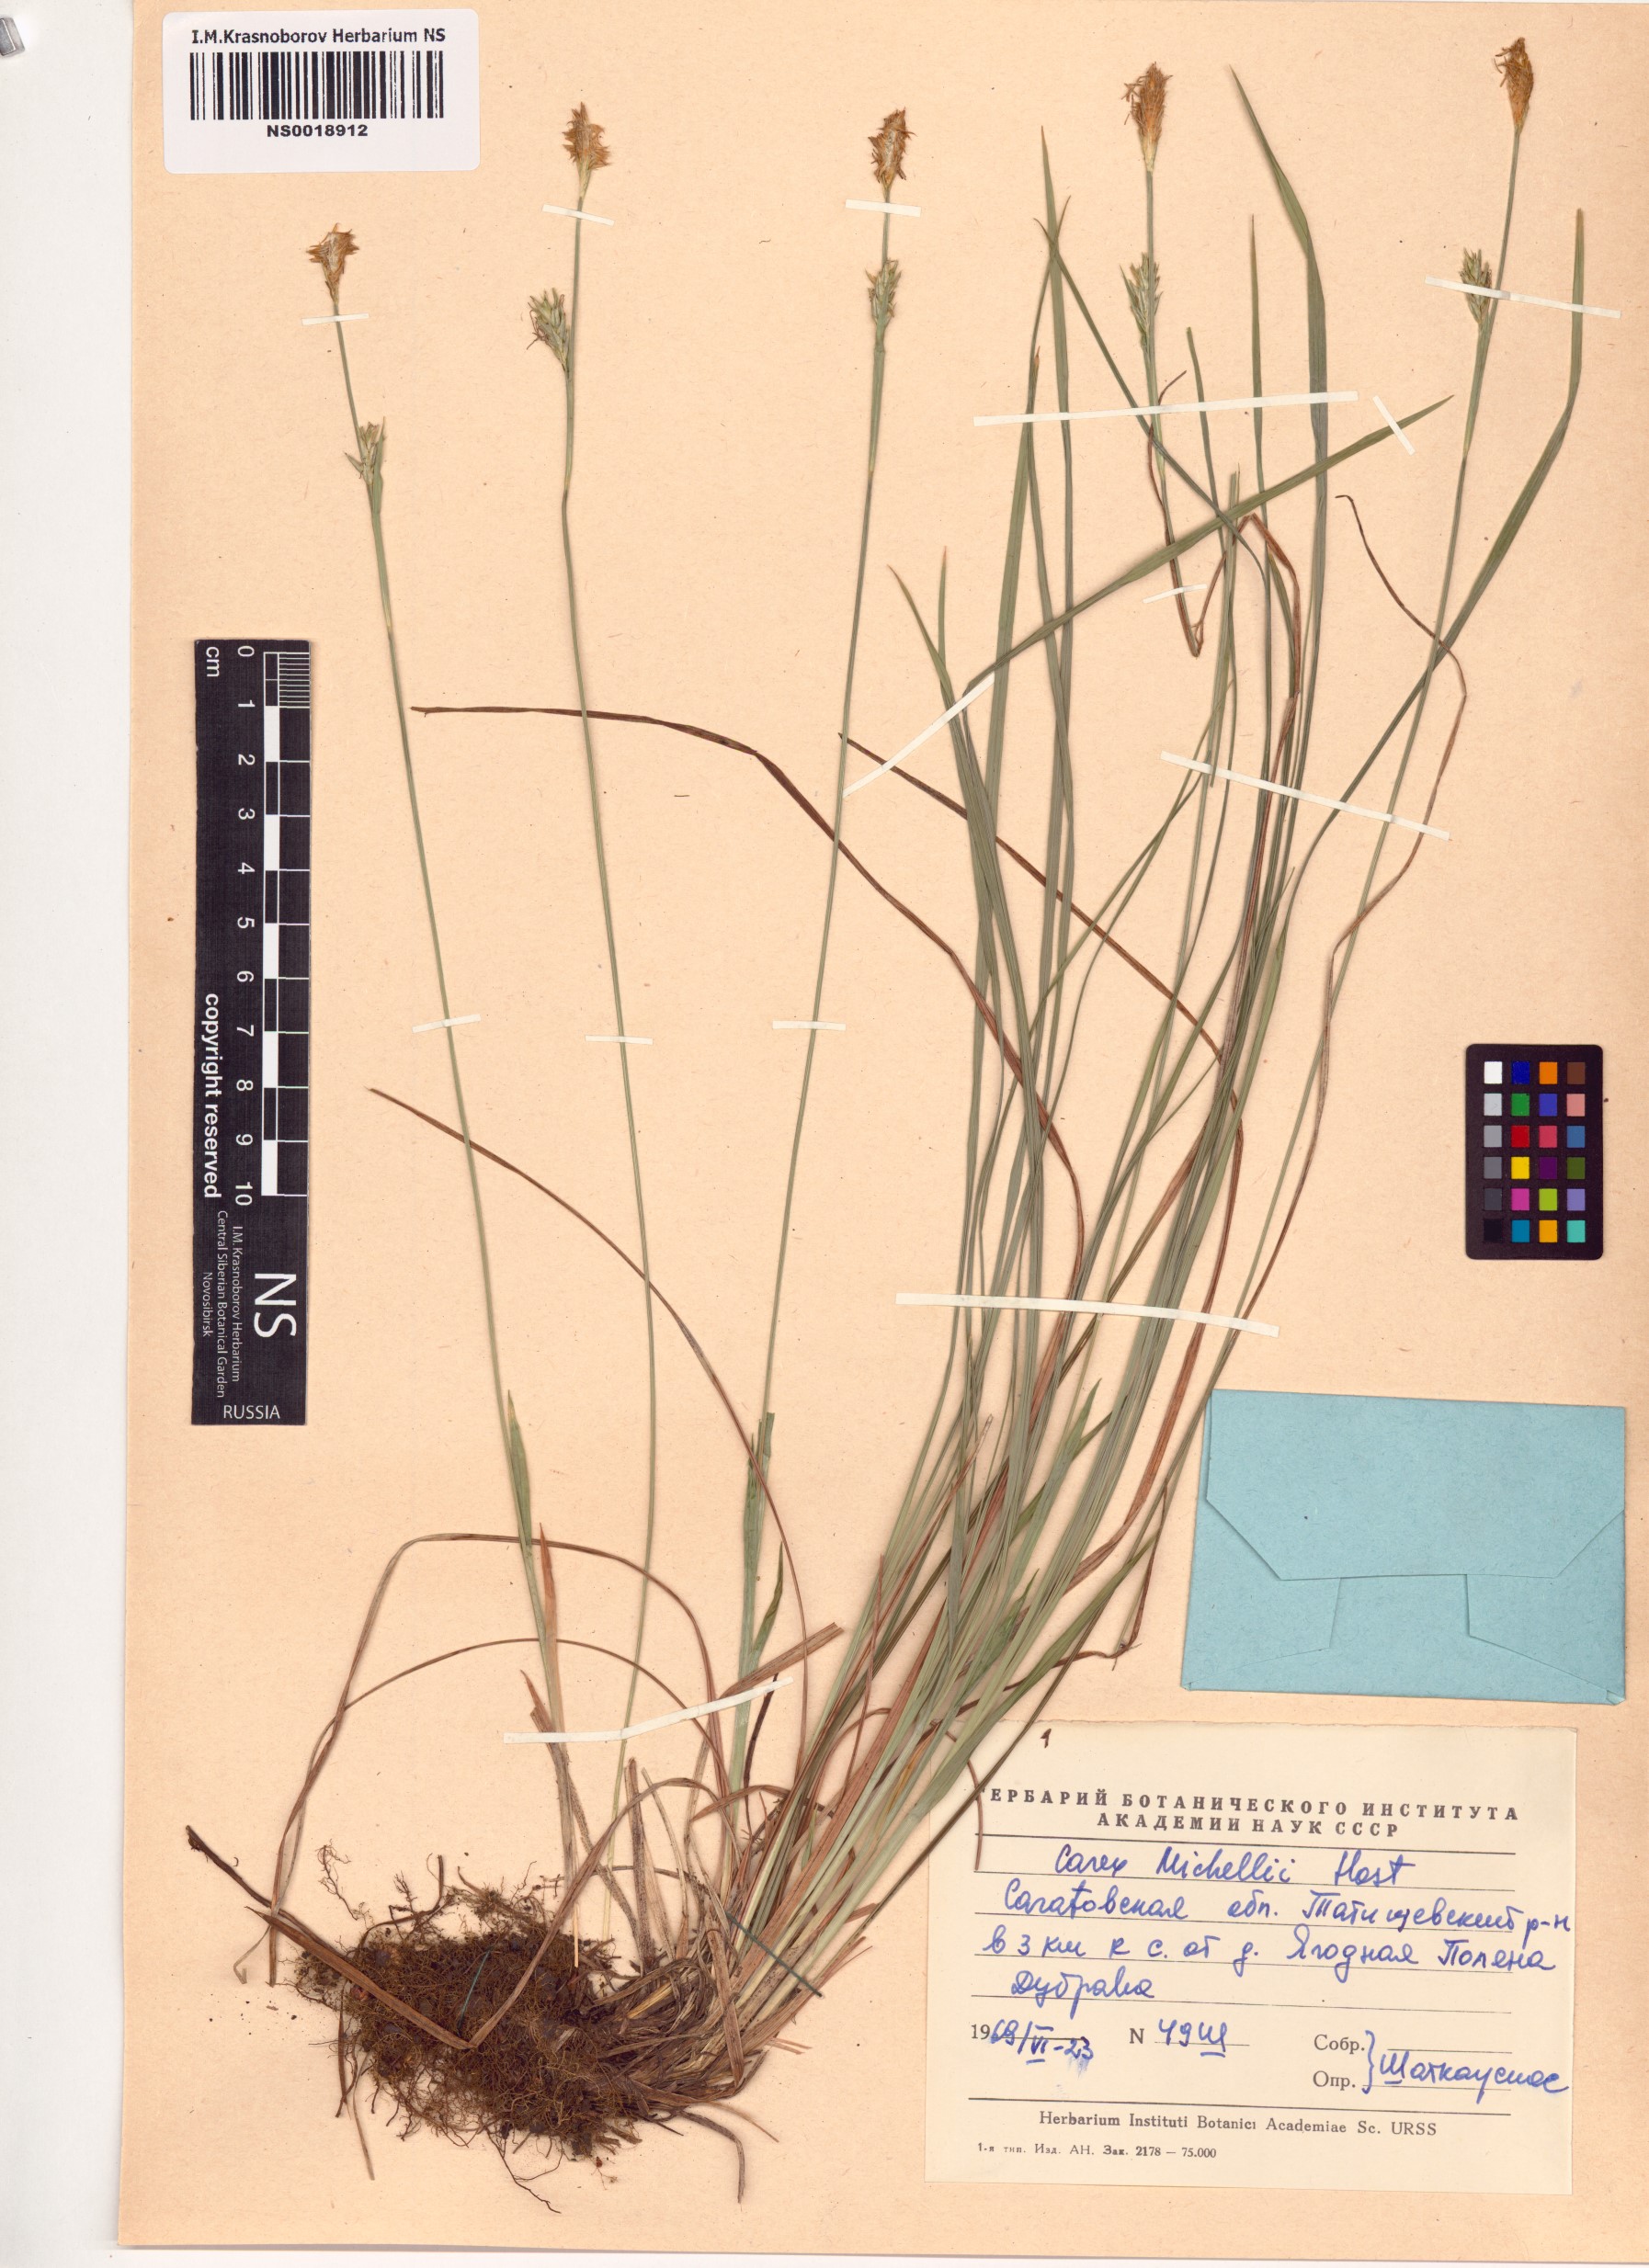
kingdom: Plantae
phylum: Tracheophyta
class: Liliopsida
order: Poales
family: Cyperaceae
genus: Carex
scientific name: Carex michelii
